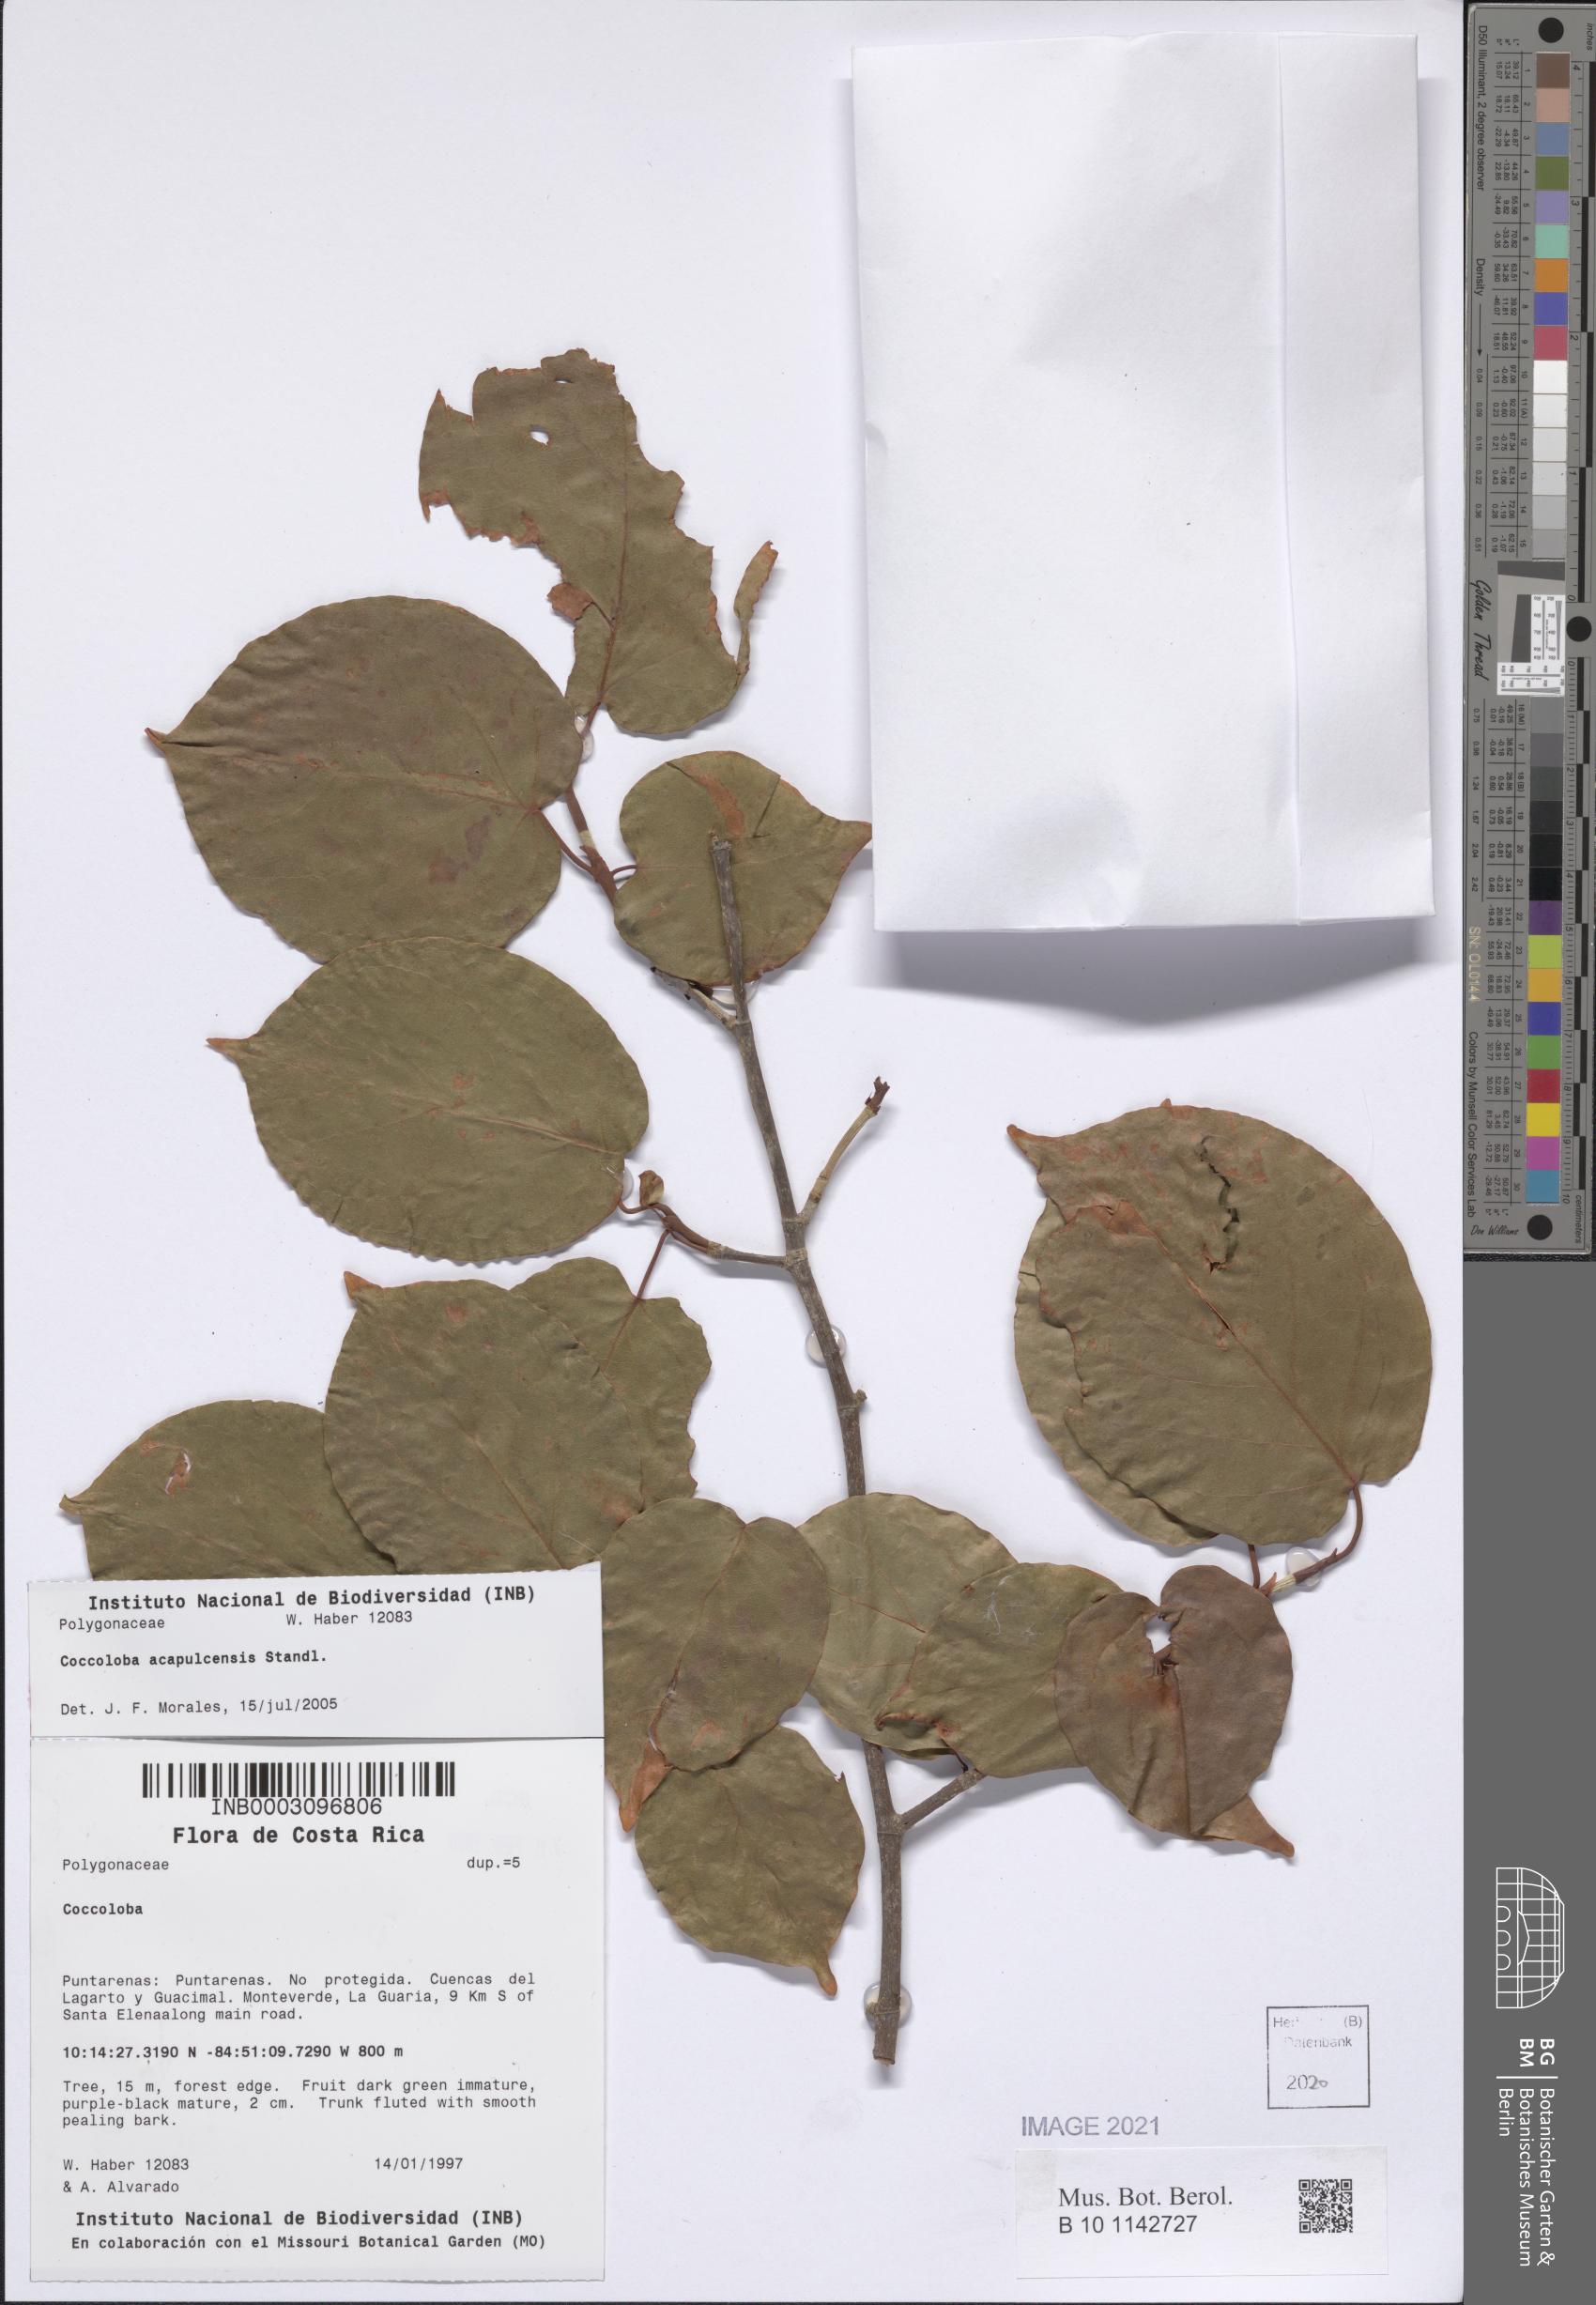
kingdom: Plantae
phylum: Tracheophyta
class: Magnoliopsida
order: Caryophyllales
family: Polygonaceae
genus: Coccoloba
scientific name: Coccoloba acapulcensis
